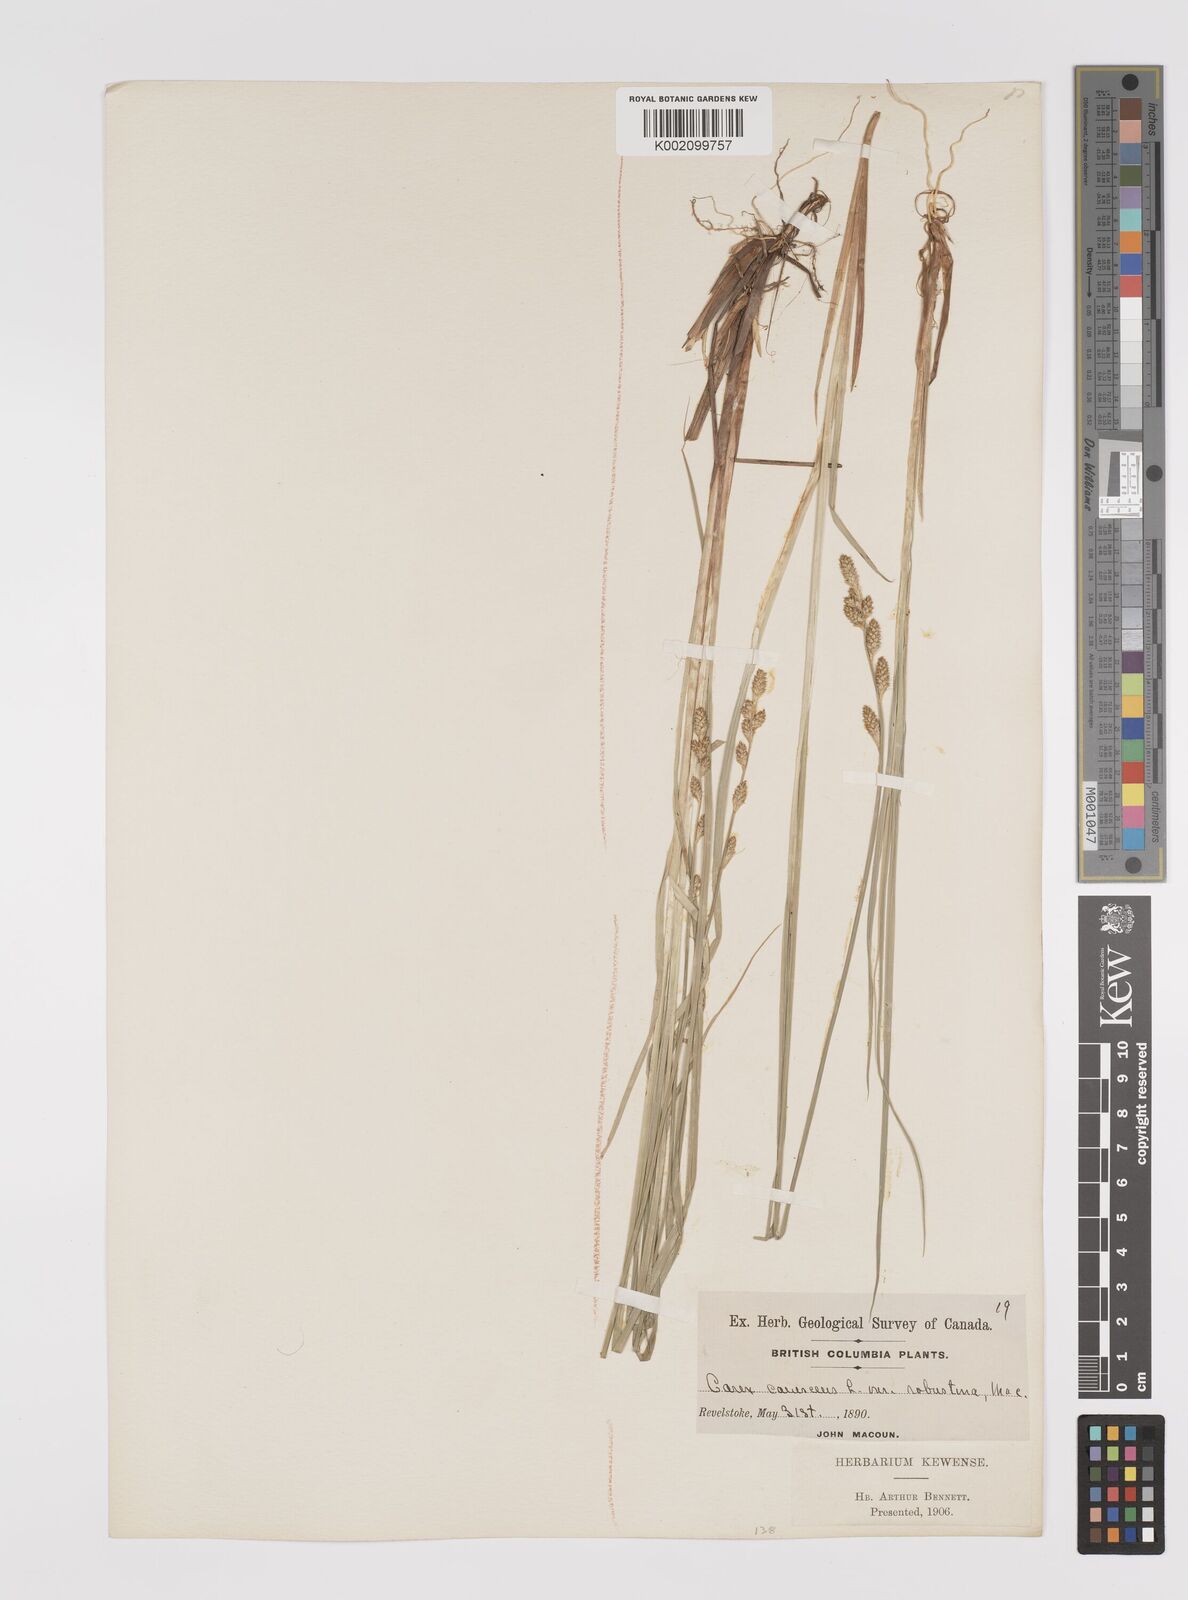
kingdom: Plantae
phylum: Tracheophyta
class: Liliopsida
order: Poales
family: Cyperaceae
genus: Carex
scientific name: Carex curta
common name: White sedge
